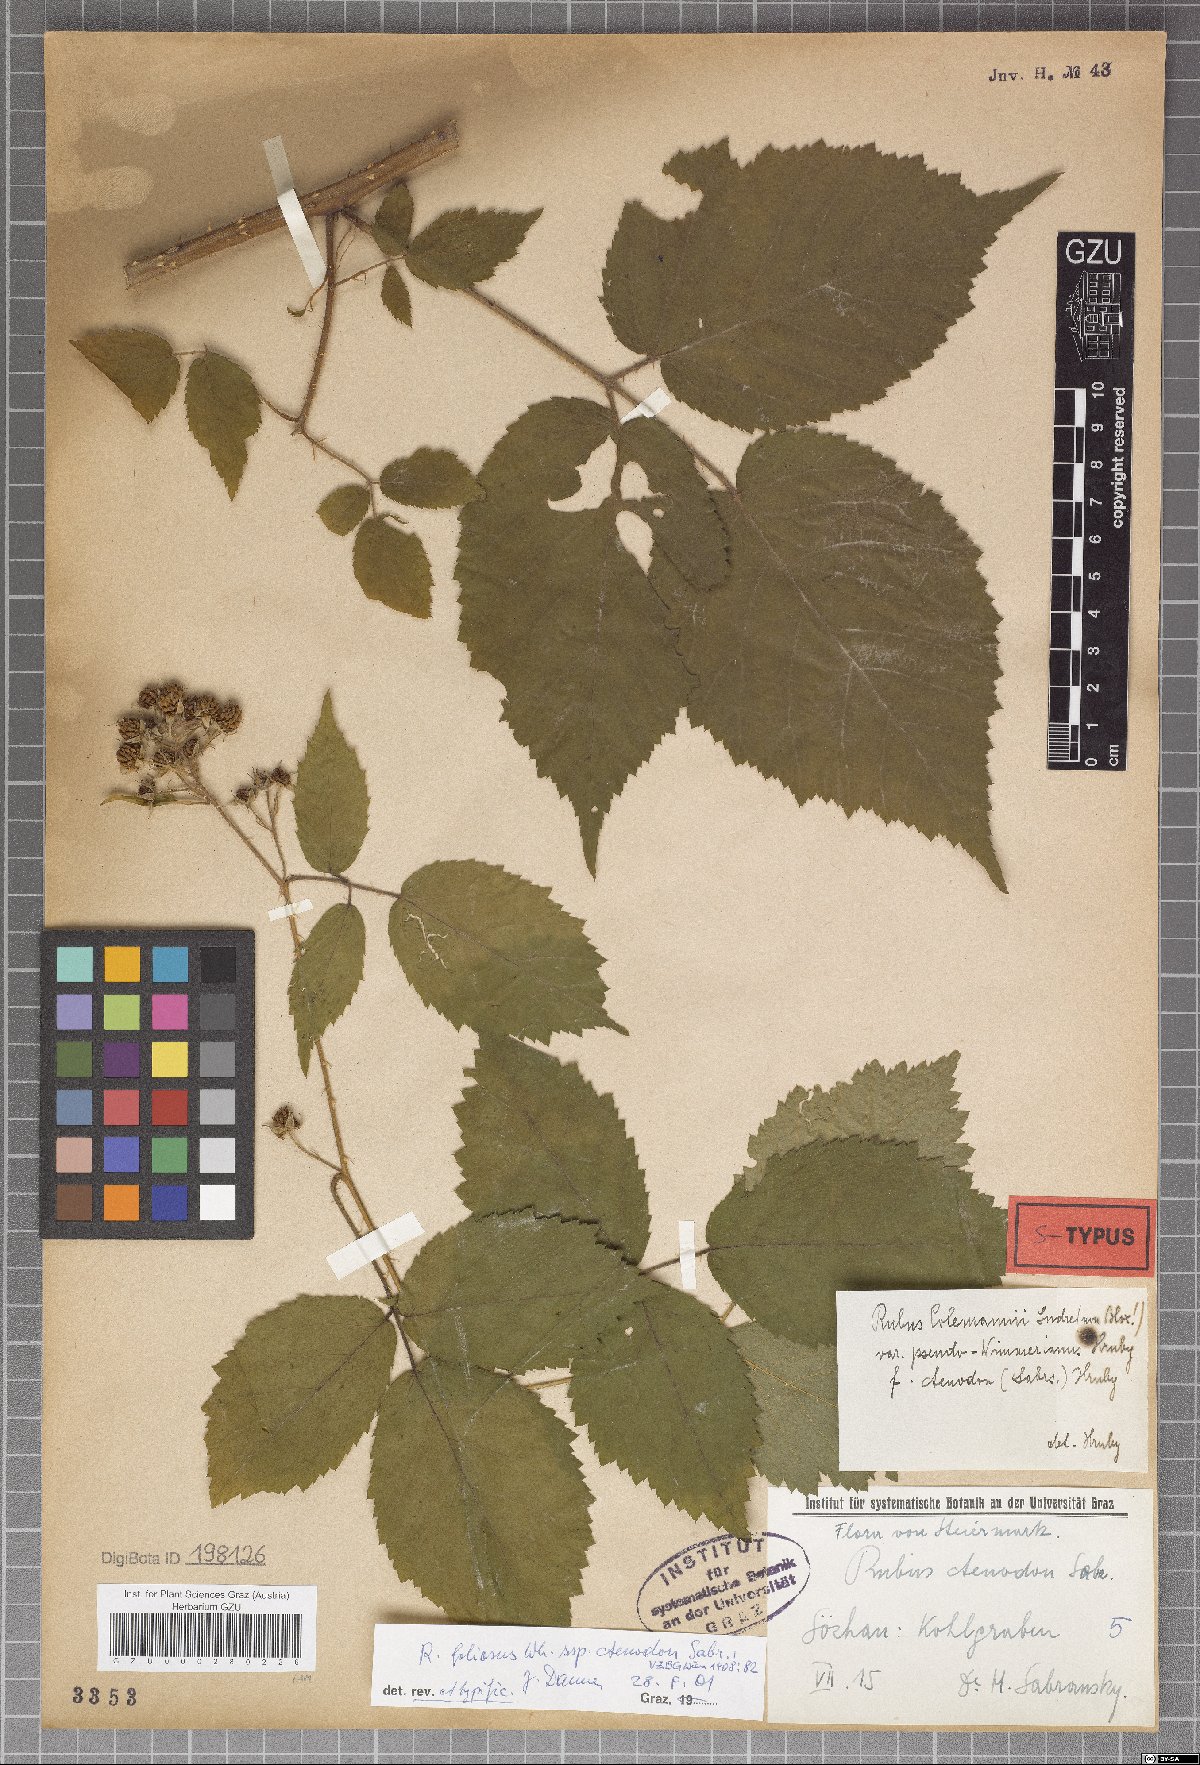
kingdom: Plantae
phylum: Tracheophyta
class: Magnoliopsida
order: Rosales
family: Rosaceae
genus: Rubus
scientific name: Rubus foliosus
